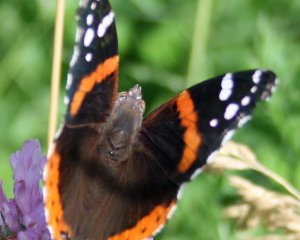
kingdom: Animalia
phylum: Arthropoda
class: Insecta
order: Lepidoptera
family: Nymphalidae
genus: Vanessa
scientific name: Vanessa atalanta
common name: Red Admiral
